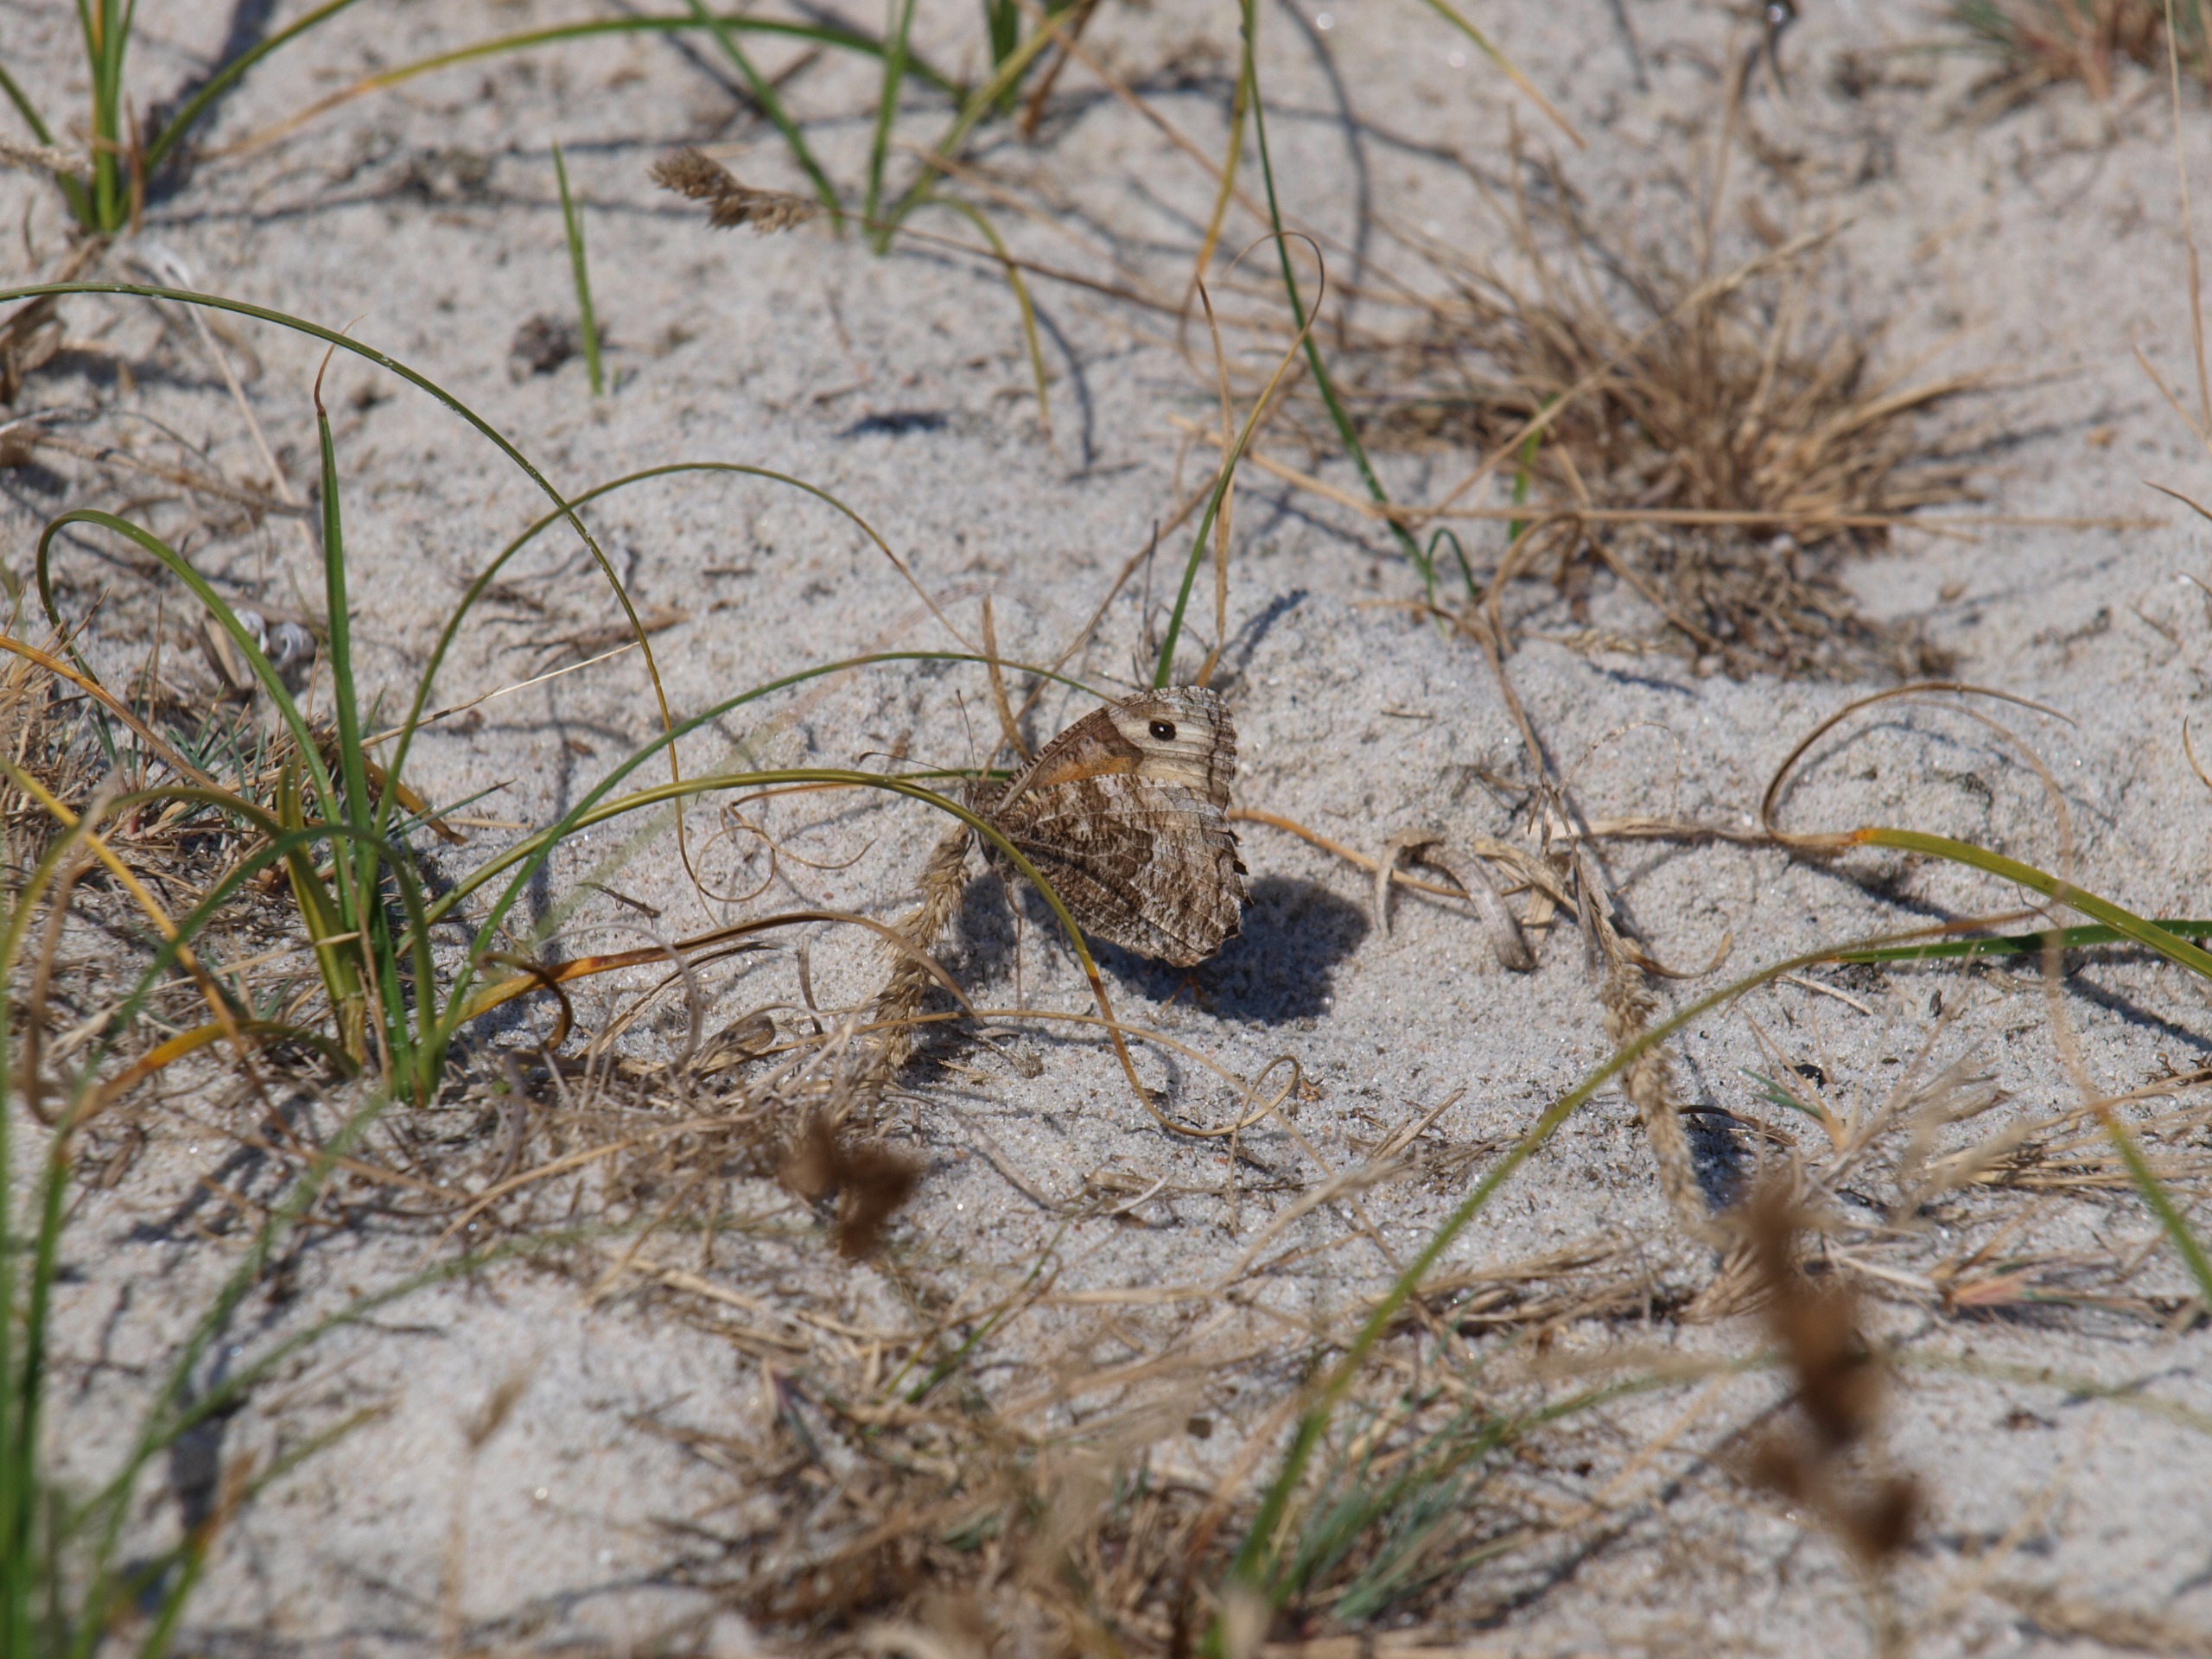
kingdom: Animalia
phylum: Arthropoda
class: Insecta
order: Lepidoptera
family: Nymphalidae
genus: Hipparchia
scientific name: Hipparchia semele
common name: Sandrandøje
